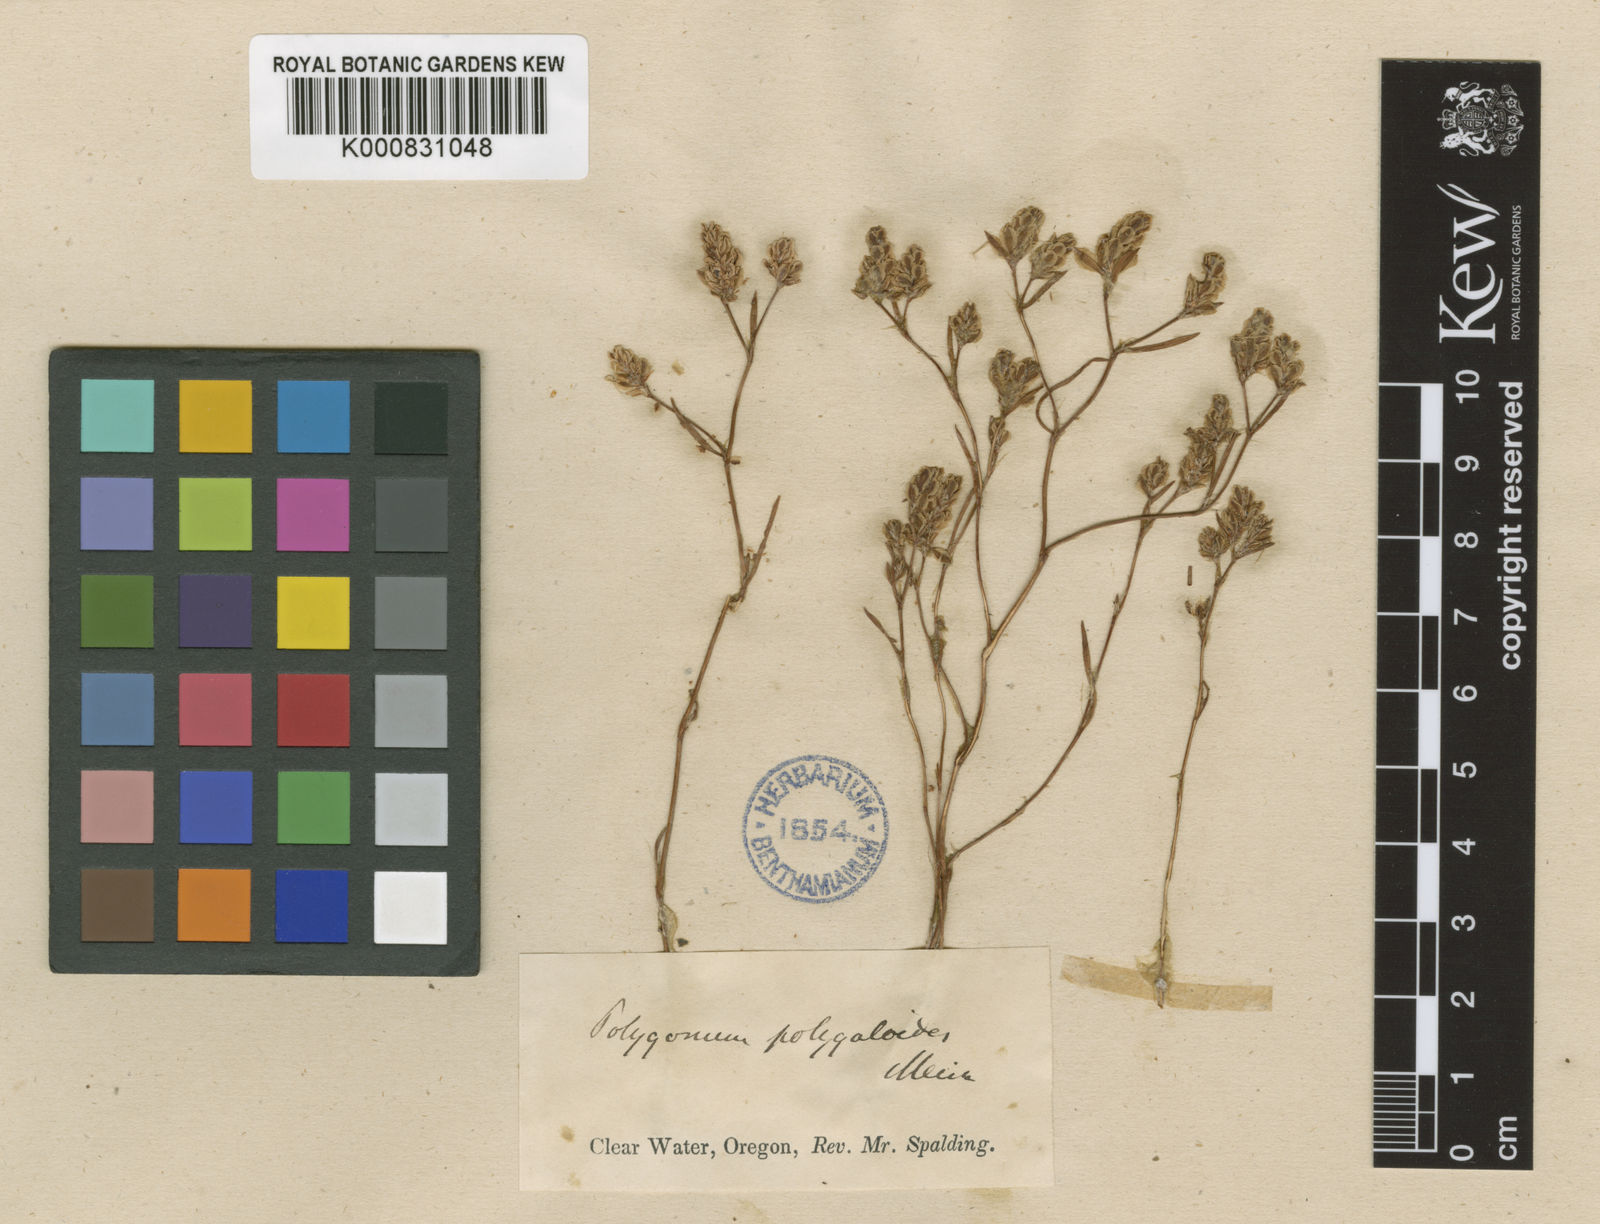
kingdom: Plantae
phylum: Tracheophyta
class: Magnoliopsida
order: Caryophyllales
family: Polygonaceae
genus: Polygonum
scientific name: Polygonum polygaloides
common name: Polygala knotweed
